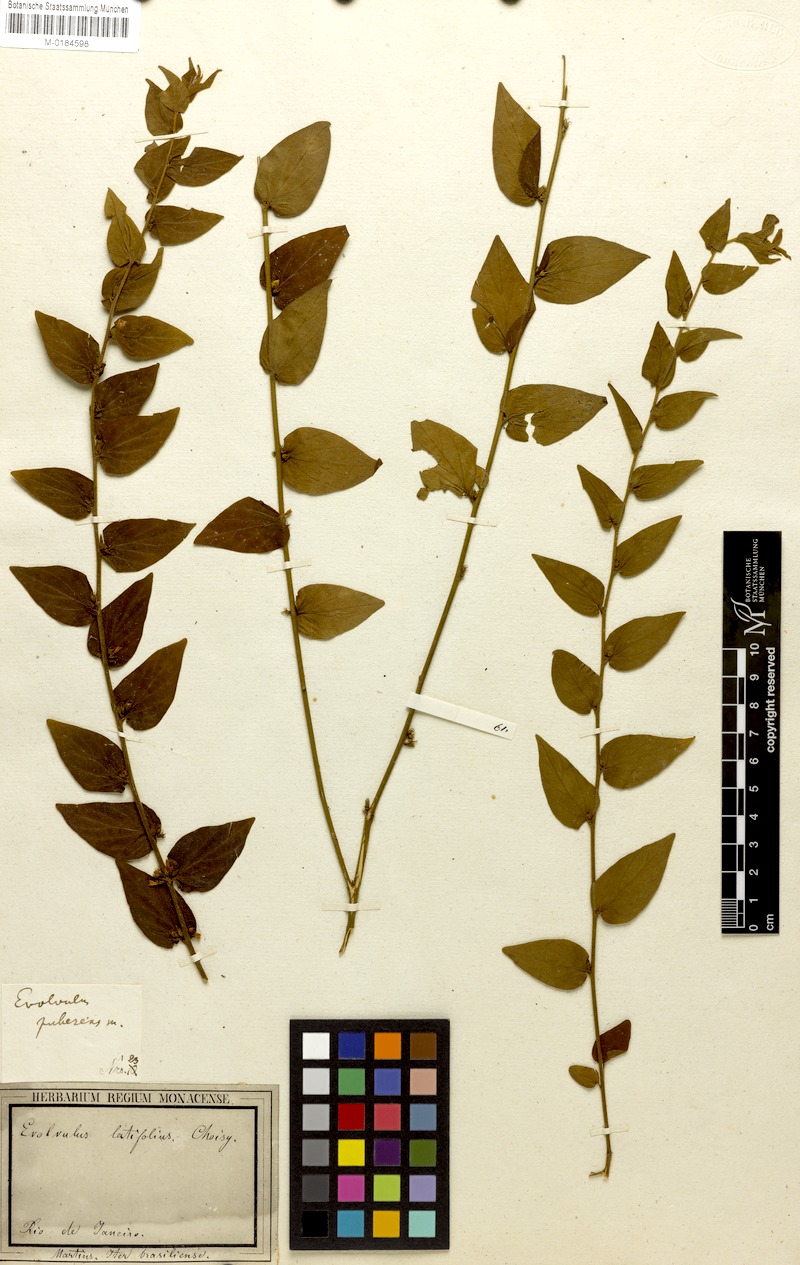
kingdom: Plantae
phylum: Tracheophyta
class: Magnoliopsida
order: Solanales
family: Convolvulaceae
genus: Evolvulus
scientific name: Evolvulus latifolius
